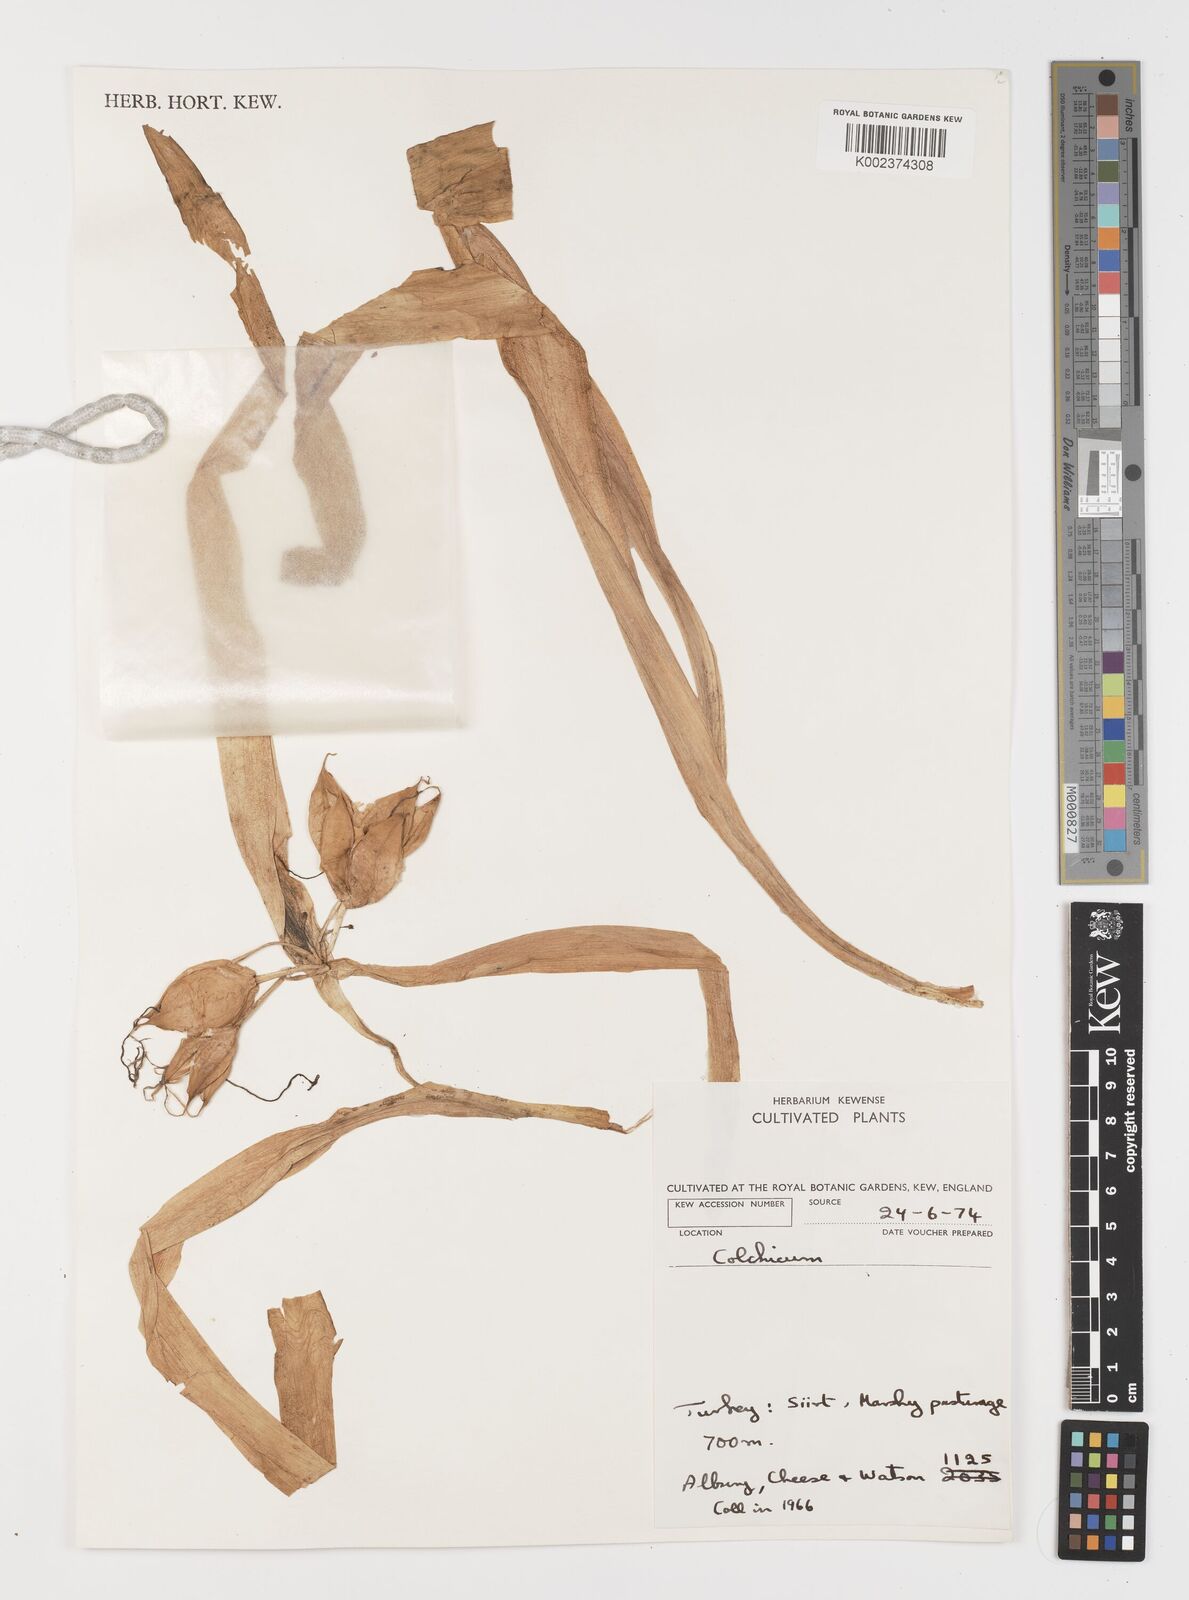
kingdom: Plantae
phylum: Tracheophyta
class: Liliopsida
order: Liliales
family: Colchicaceae
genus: Colchicum
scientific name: Colchicum
